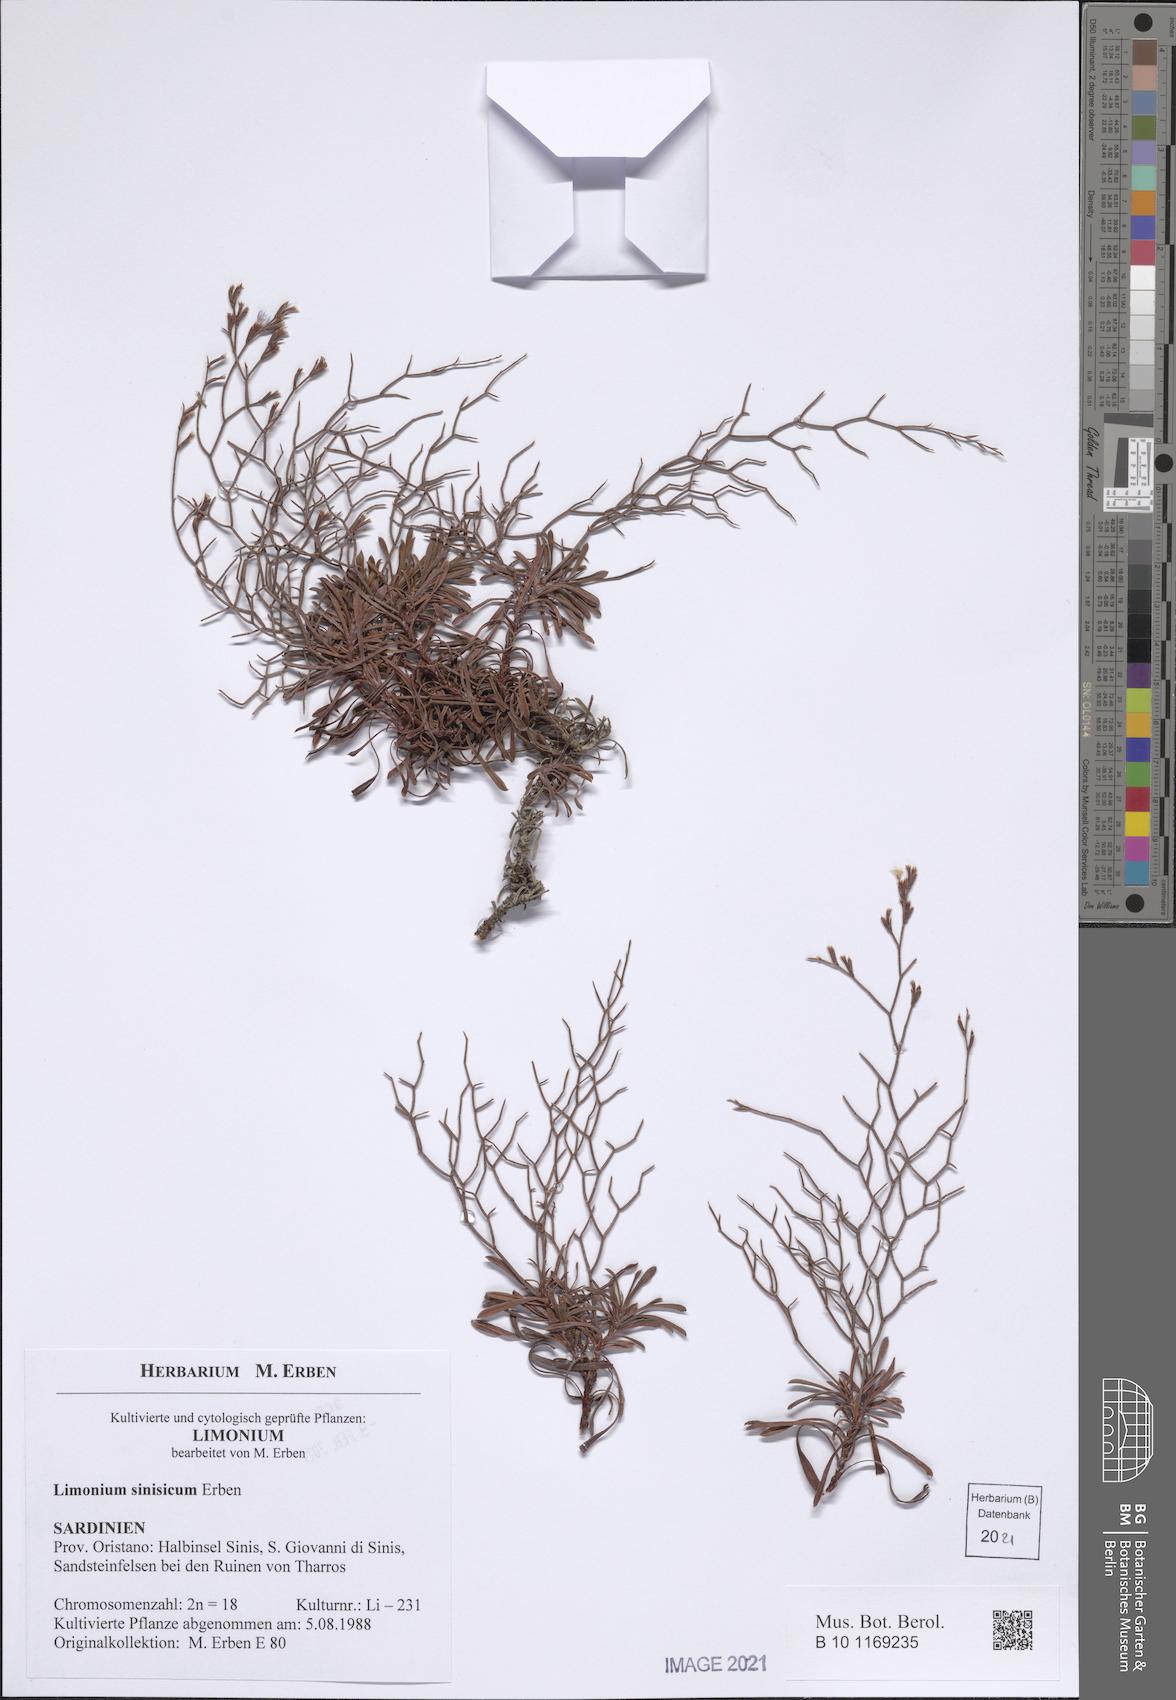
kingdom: Plantae
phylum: Tracheophyta
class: Magnoliopsida
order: Caryophyllales
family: Plumbaginaceae
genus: Limonium
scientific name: Limonium acutifolium
